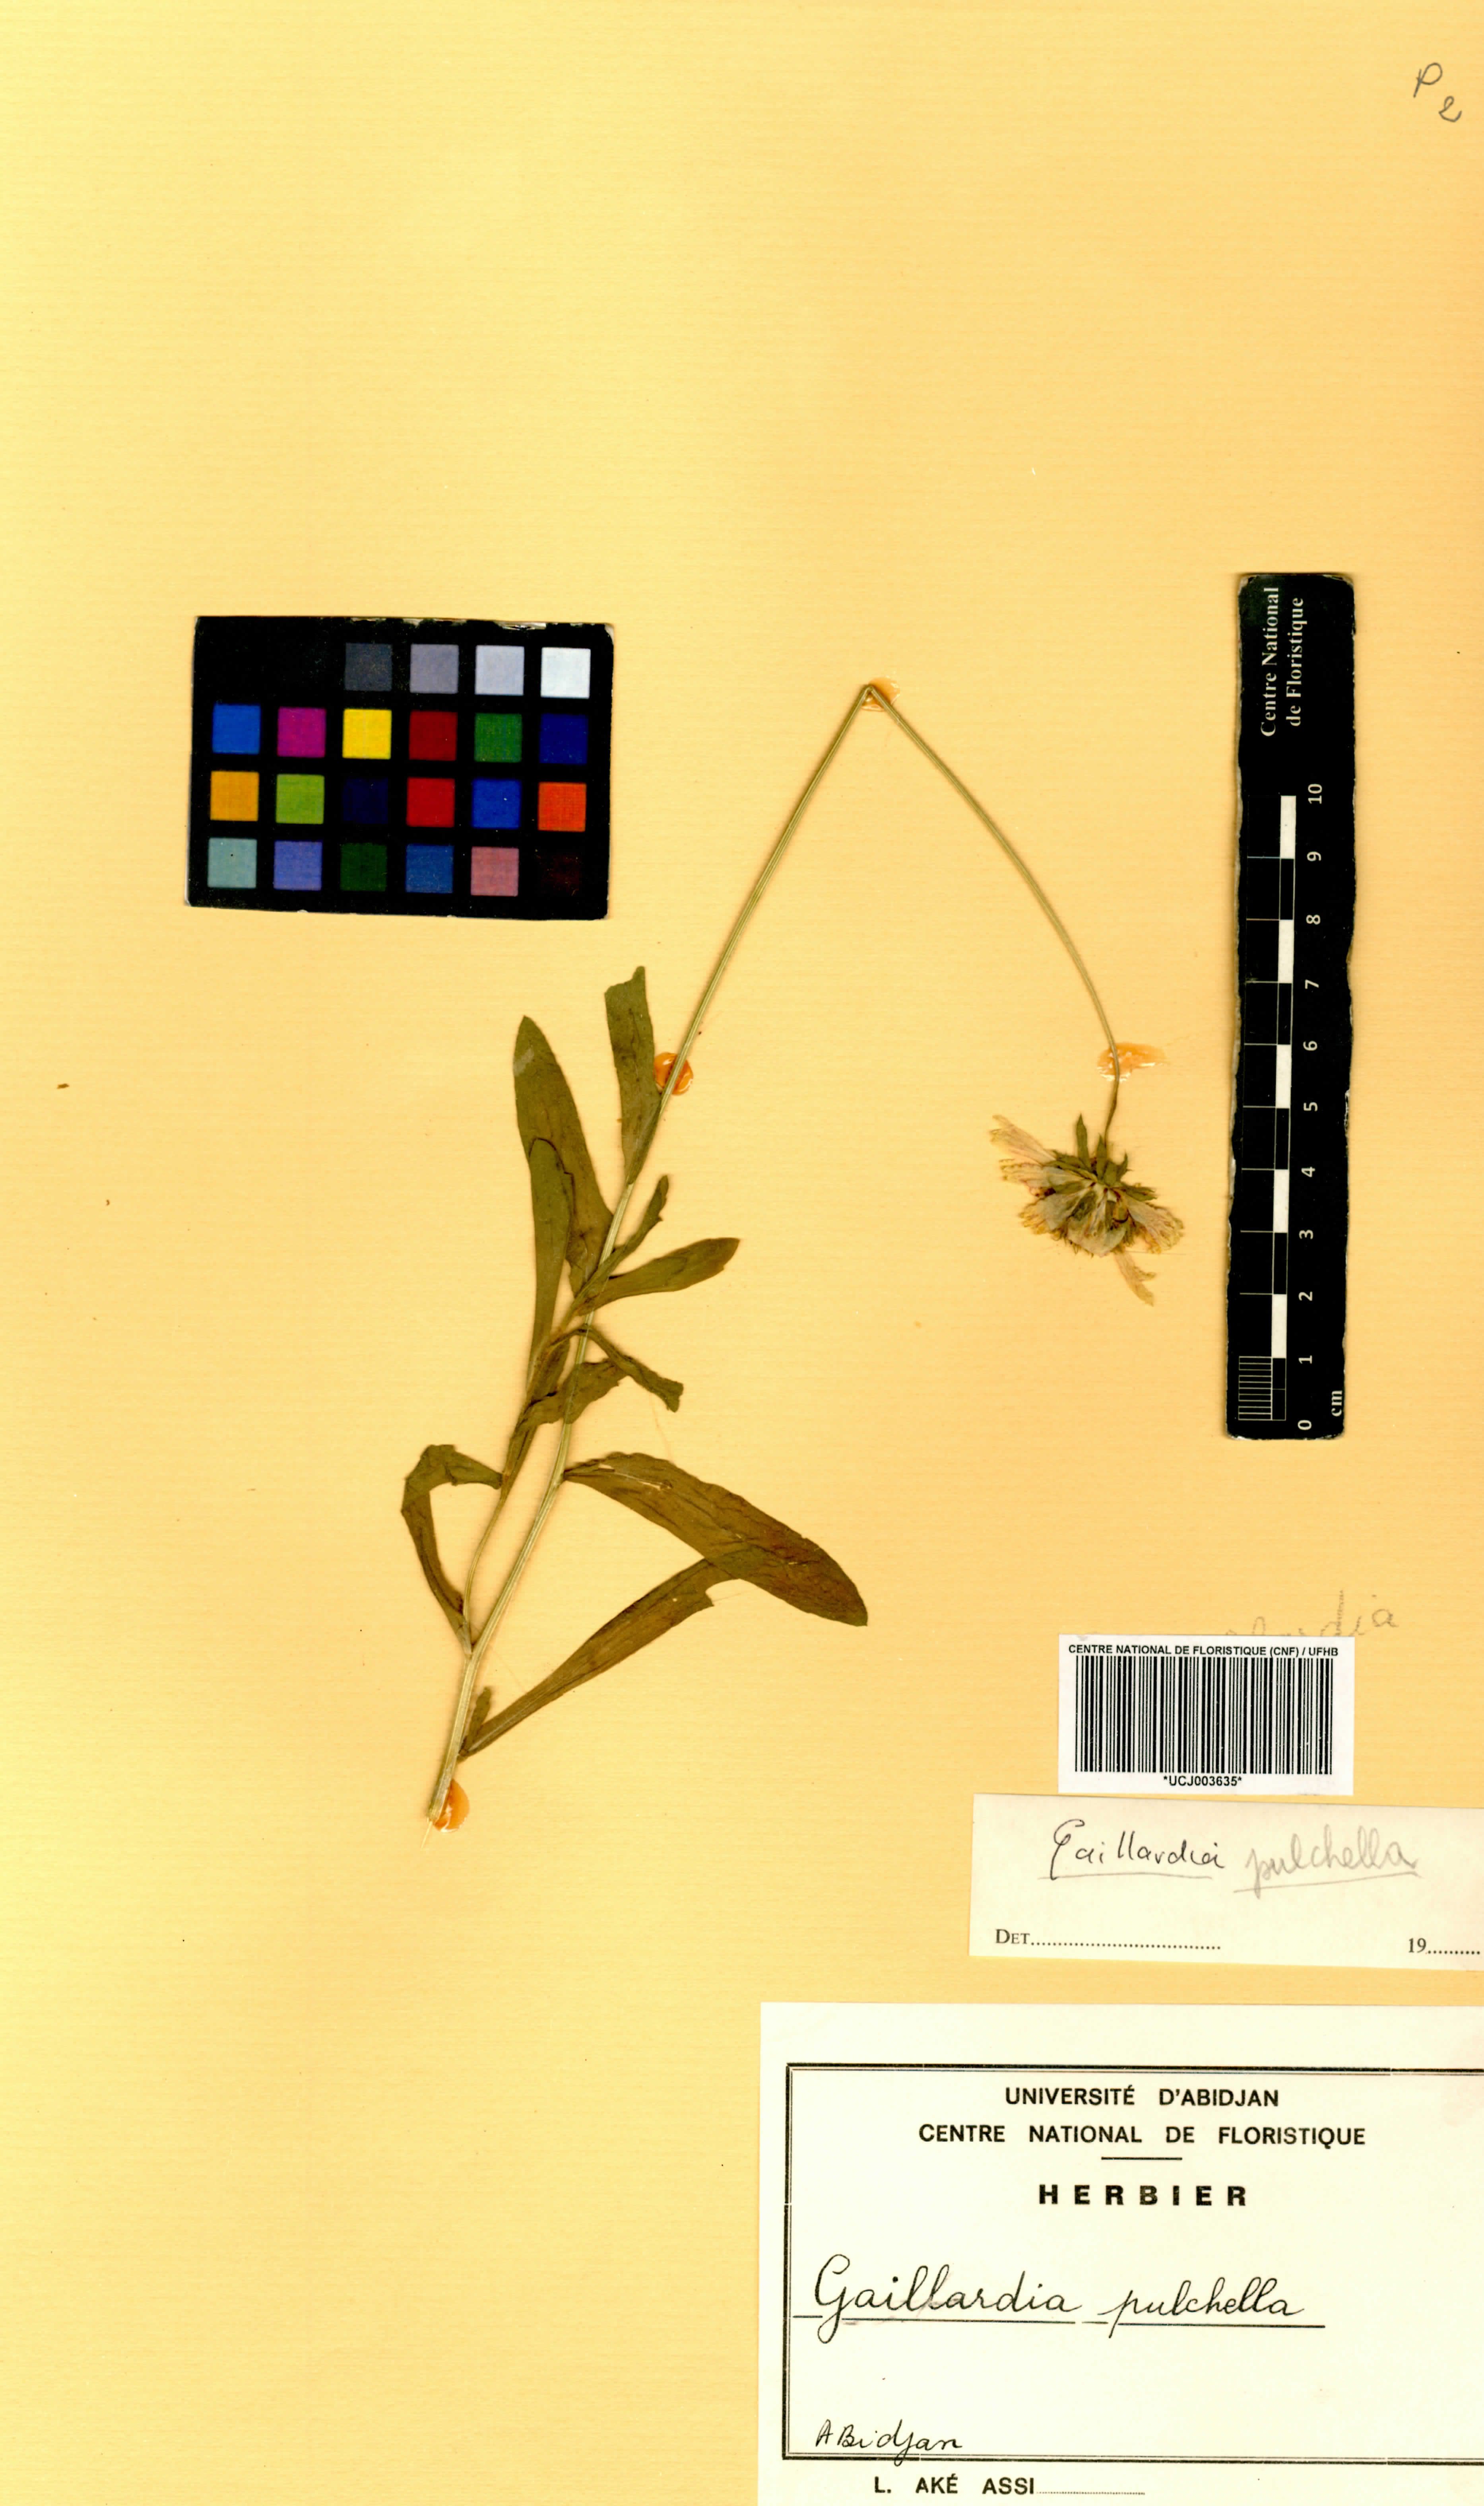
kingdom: Plantae
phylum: Tracheophyta
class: Magnoliopsida
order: Asterales
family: Asteraceae
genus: Gaillardia
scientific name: Gaillardia pulchella
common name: Firewheel
